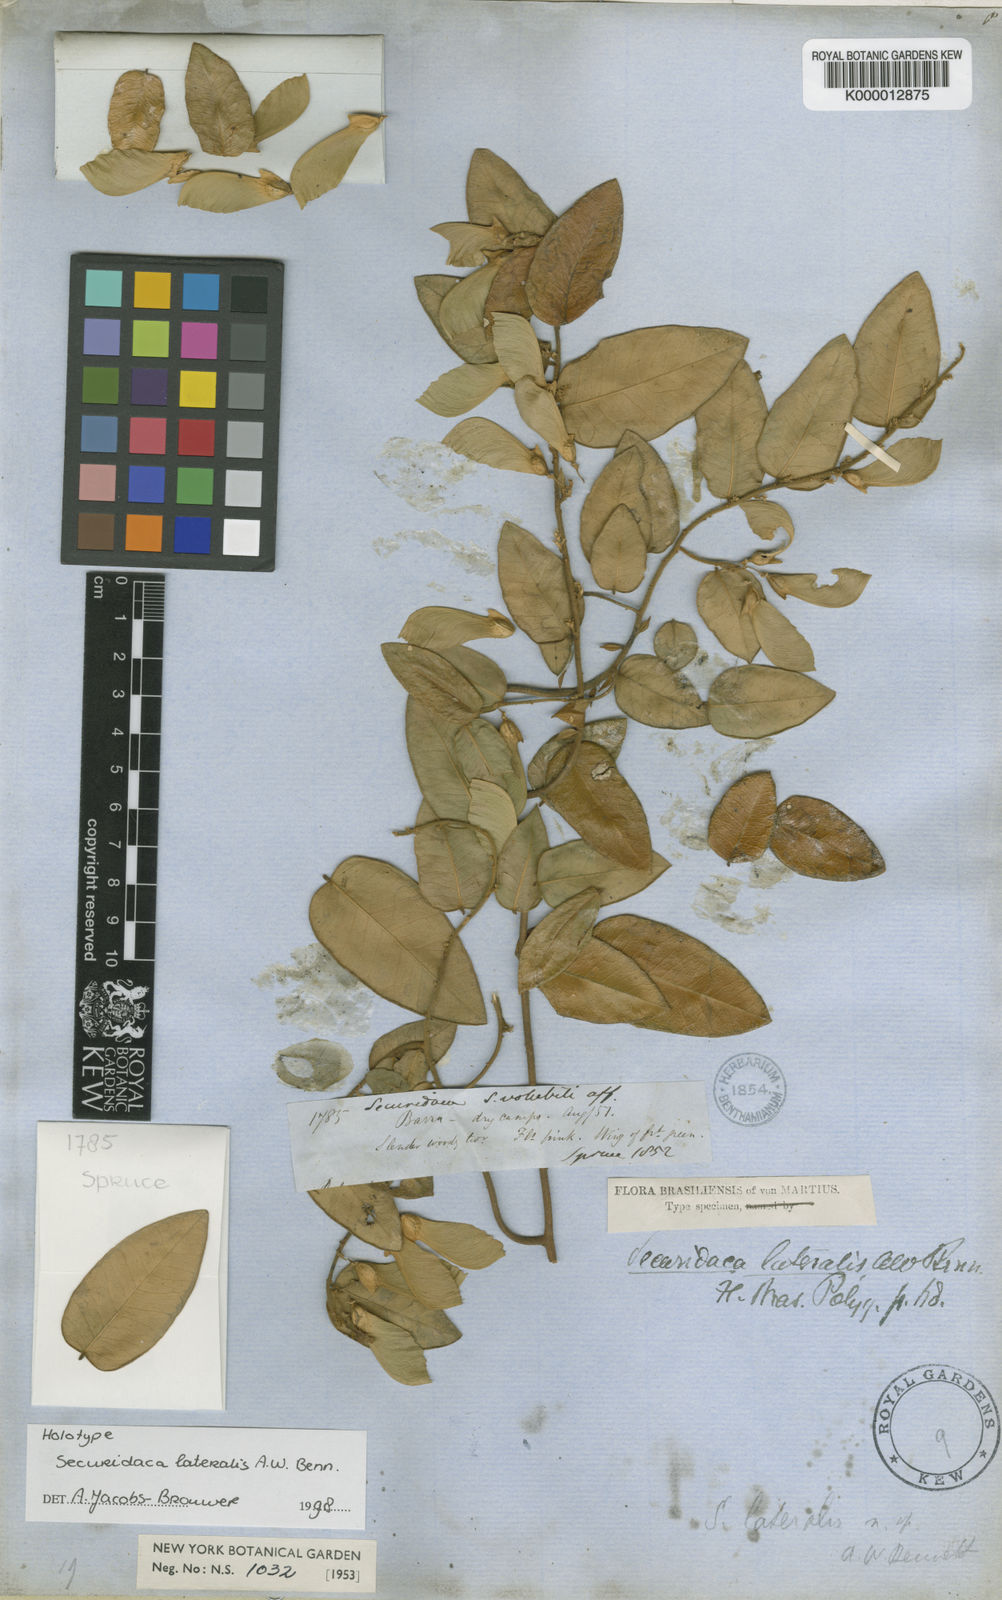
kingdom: Plantae
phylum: Tracheophyta
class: Magnoliopsida
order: Fabales
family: Polygalaceae
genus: Securidaca
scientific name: Securidaca lateralis
